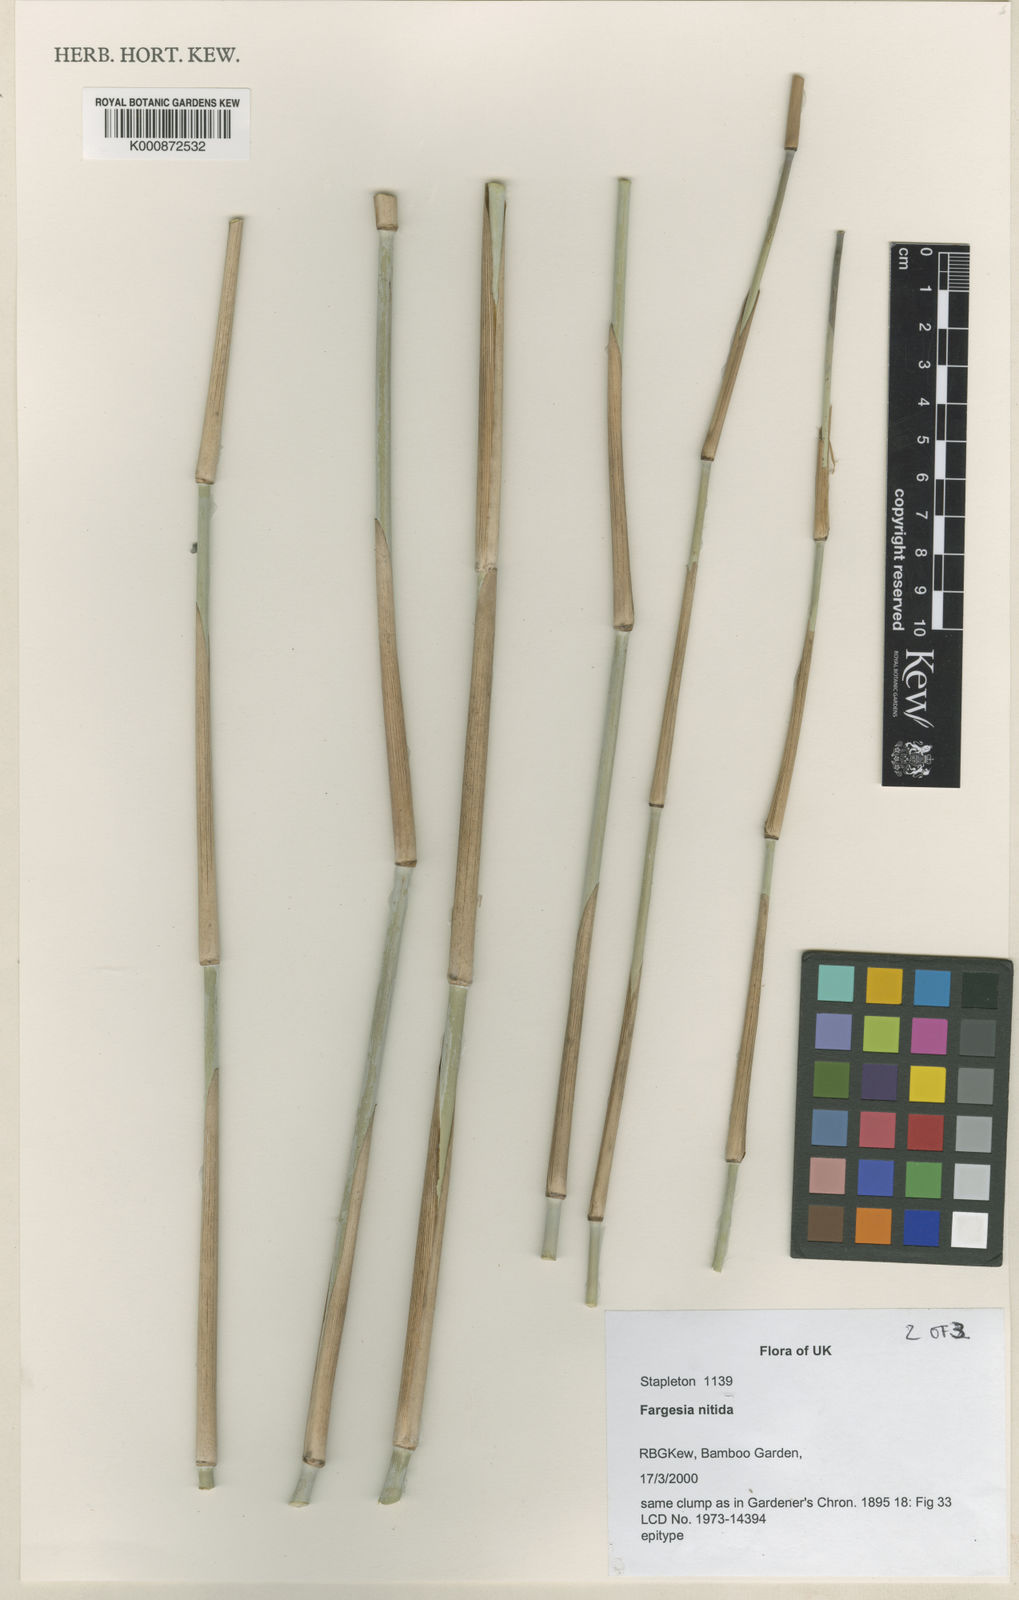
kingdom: Plantae
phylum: Tracheophyta
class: Liliopsida
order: Poales
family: Poaceae
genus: Fargesia
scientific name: Fargesia nitida ex
